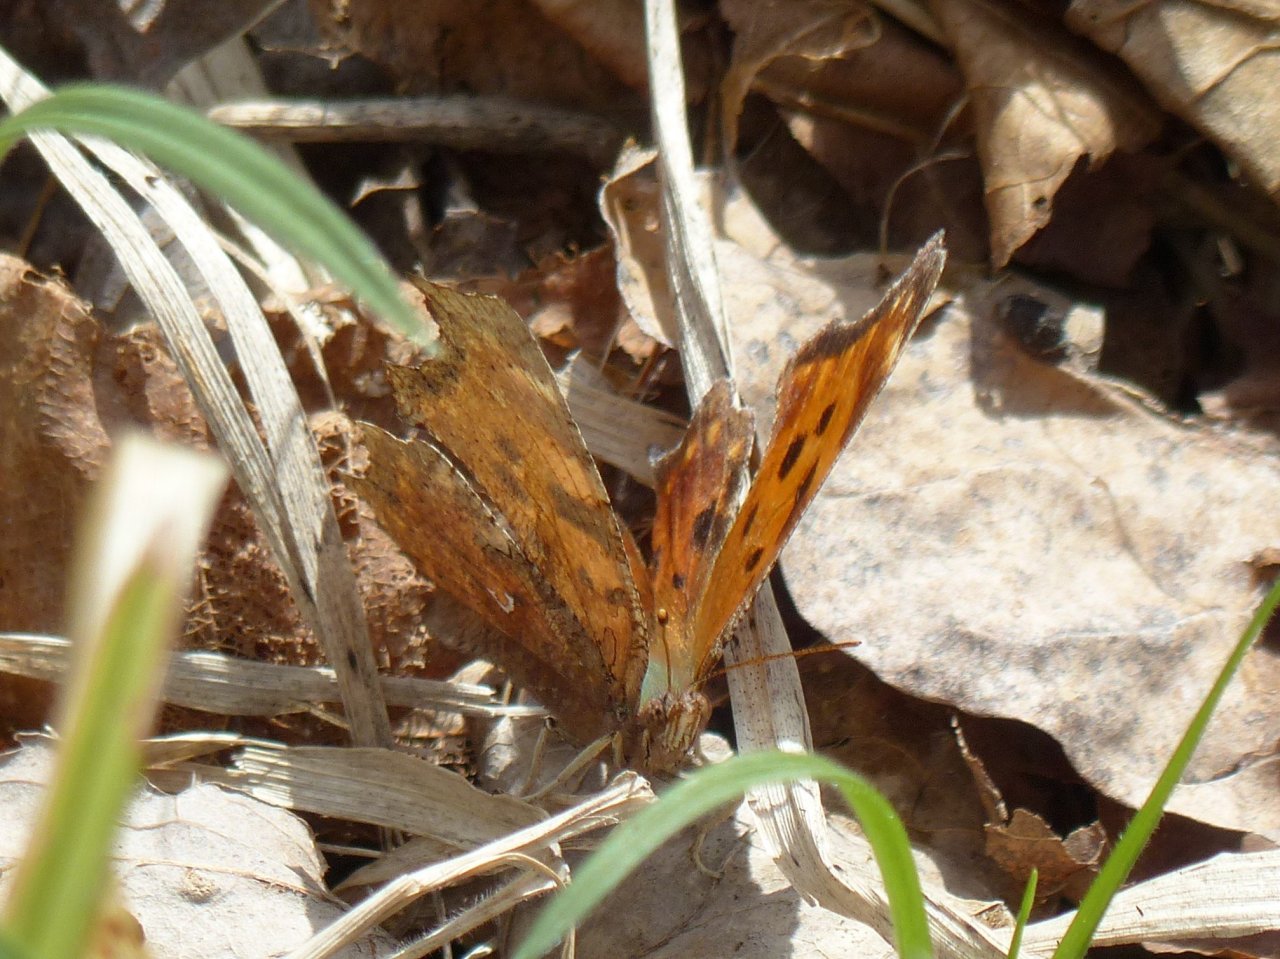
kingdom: Animalia
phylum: Arthropoda
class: Insecta
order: Lepidoptera
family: Nymphalidae
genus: Polygonia
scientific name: Polygonia comma
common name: Eastern Comma
